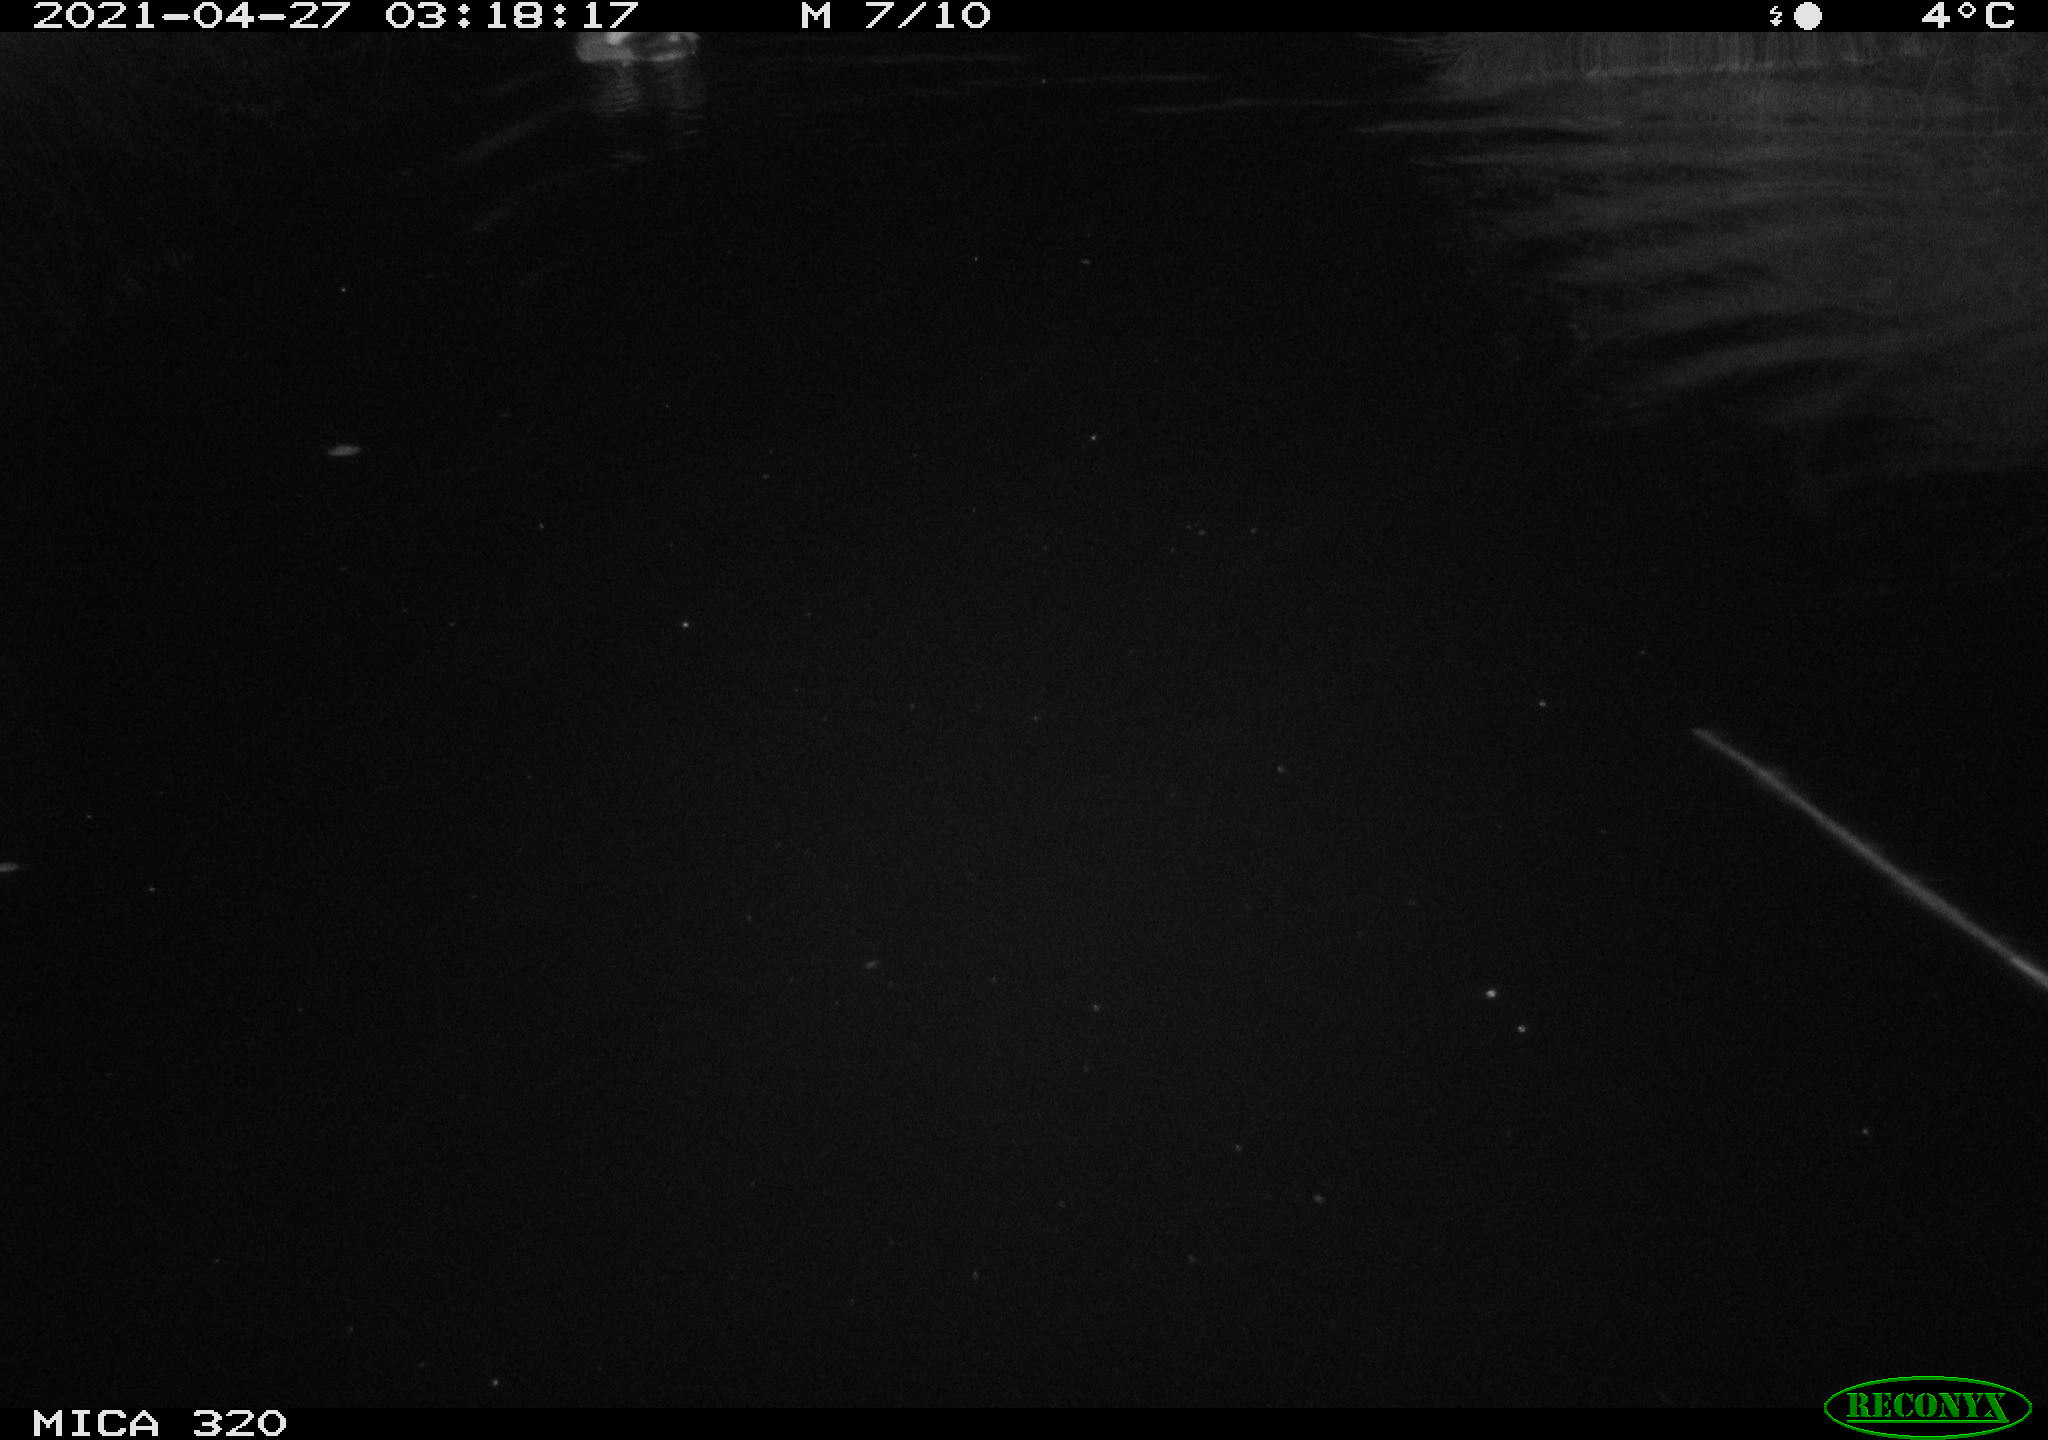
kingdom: Animalia
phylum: Chordata
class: Aves
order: Anseriformes
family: Anatidae
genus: Mareca
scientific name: Mareca strepera
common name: Gadwall
